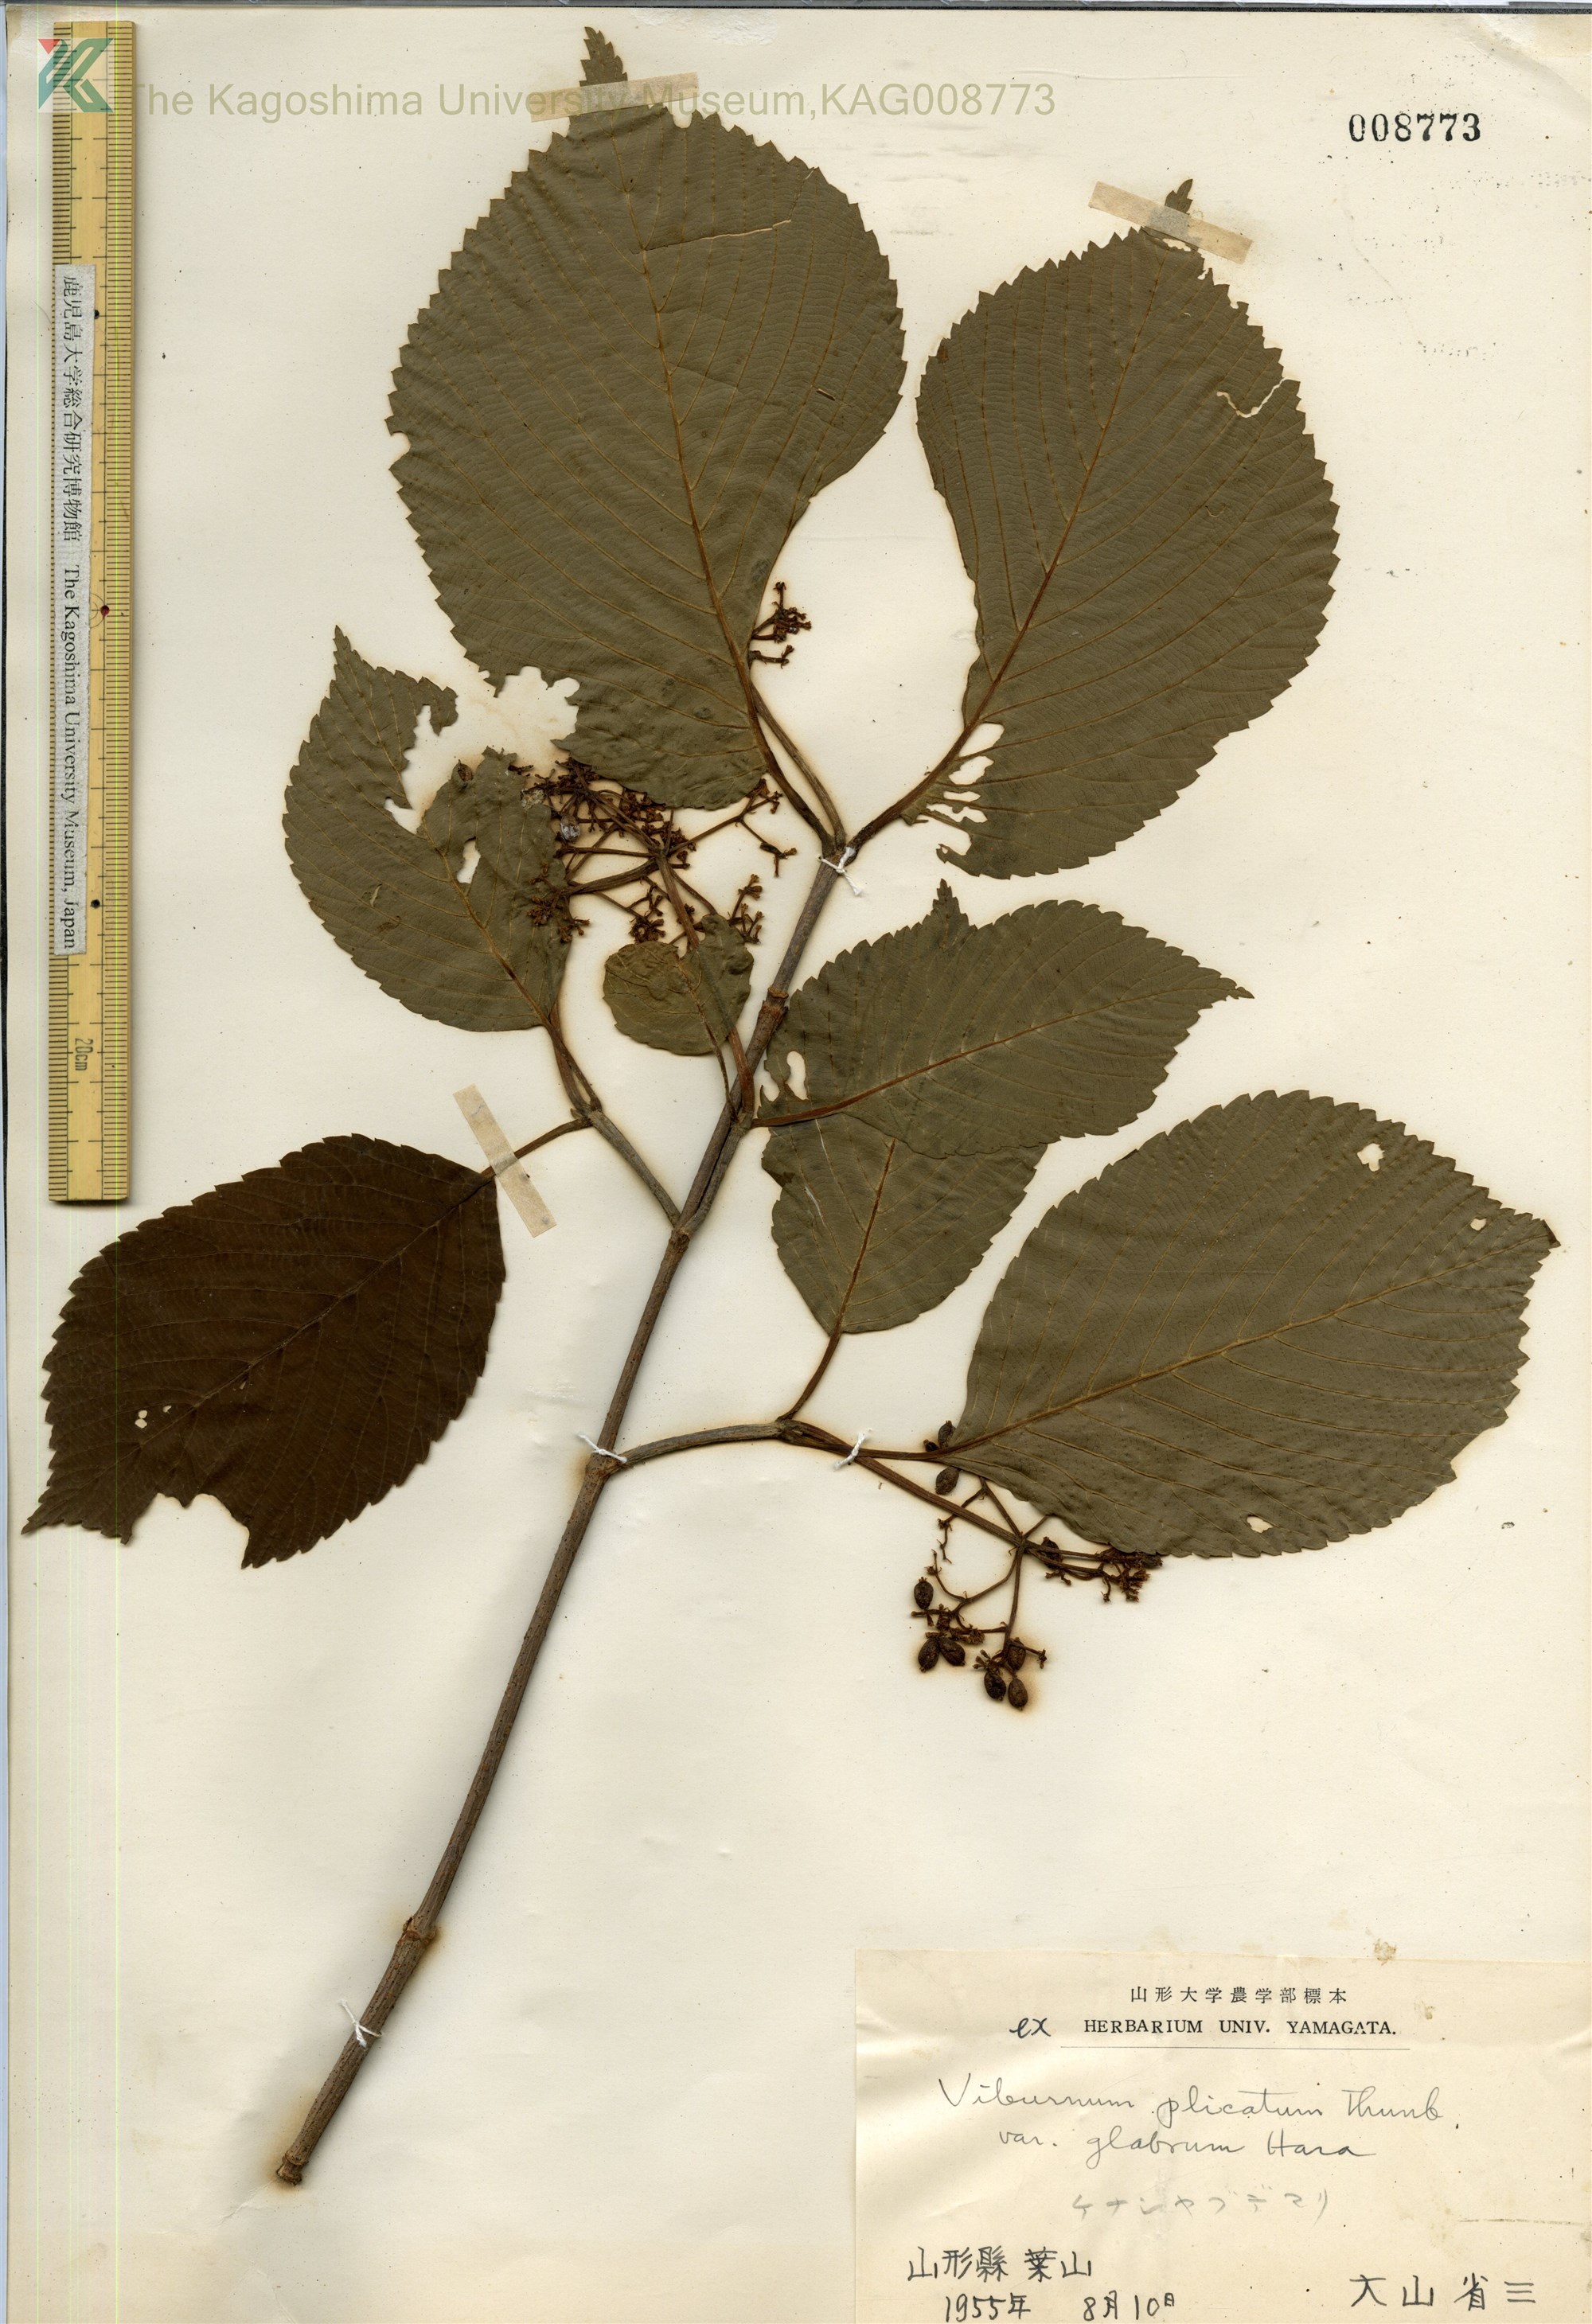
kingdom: Plantae
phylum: Tracheophyta
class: Magnoliopsida
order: Dipsacales
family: Viburnaceae
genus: Viburnum
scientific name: Viburnum plicatum
